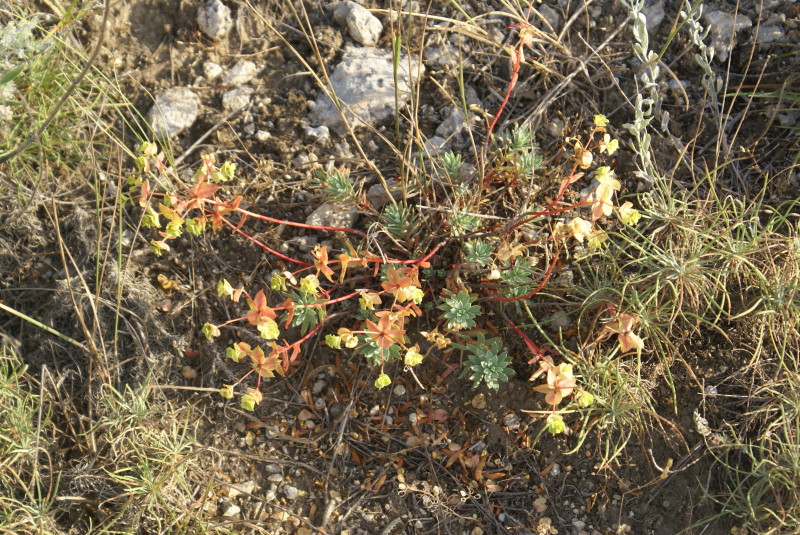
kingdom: Plantae
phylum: Tracheophyta
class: Magnoliopsida
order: Malpighiales
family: Euphorbiaceae
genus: Euphorbia
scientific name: Euphorbia petrophila
